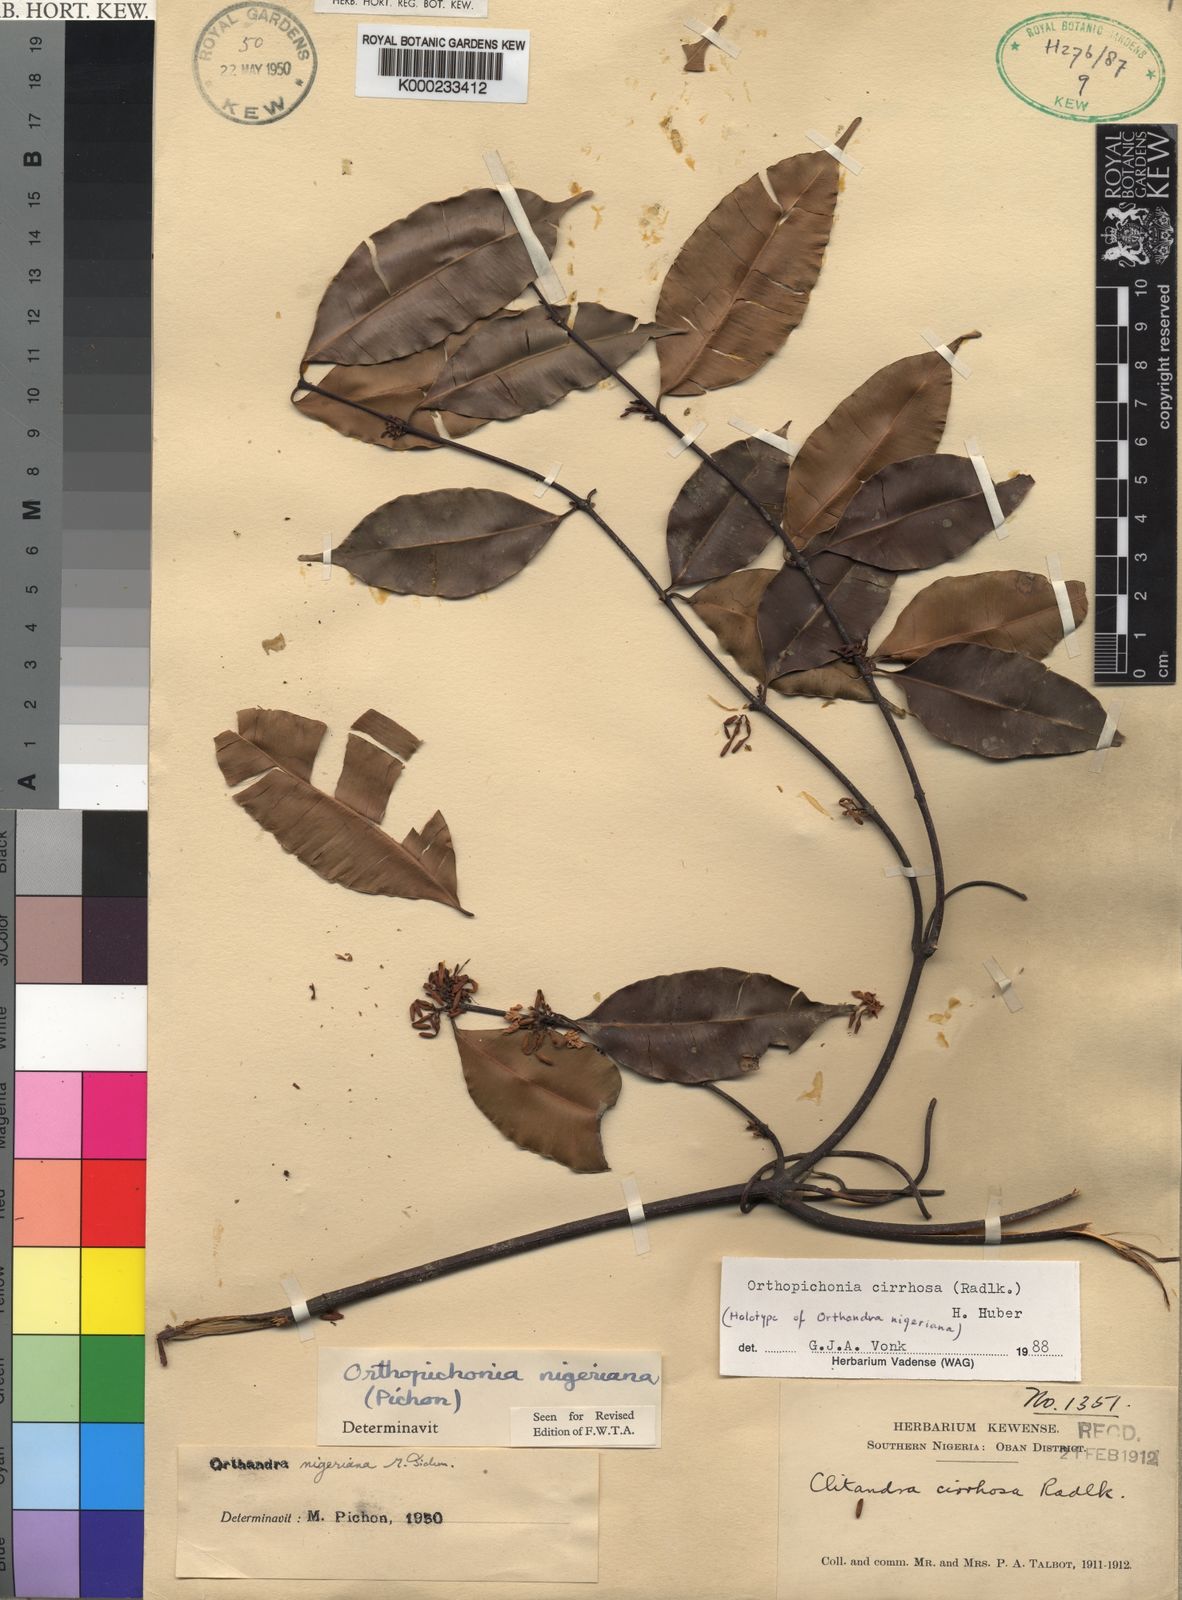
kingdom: Plantae
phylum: Tracheophyta
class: Magnoliopsida
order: Gentianales
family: Apocynaceae
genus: Orthopichonia
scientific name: Orthopichonia cirrhosa
